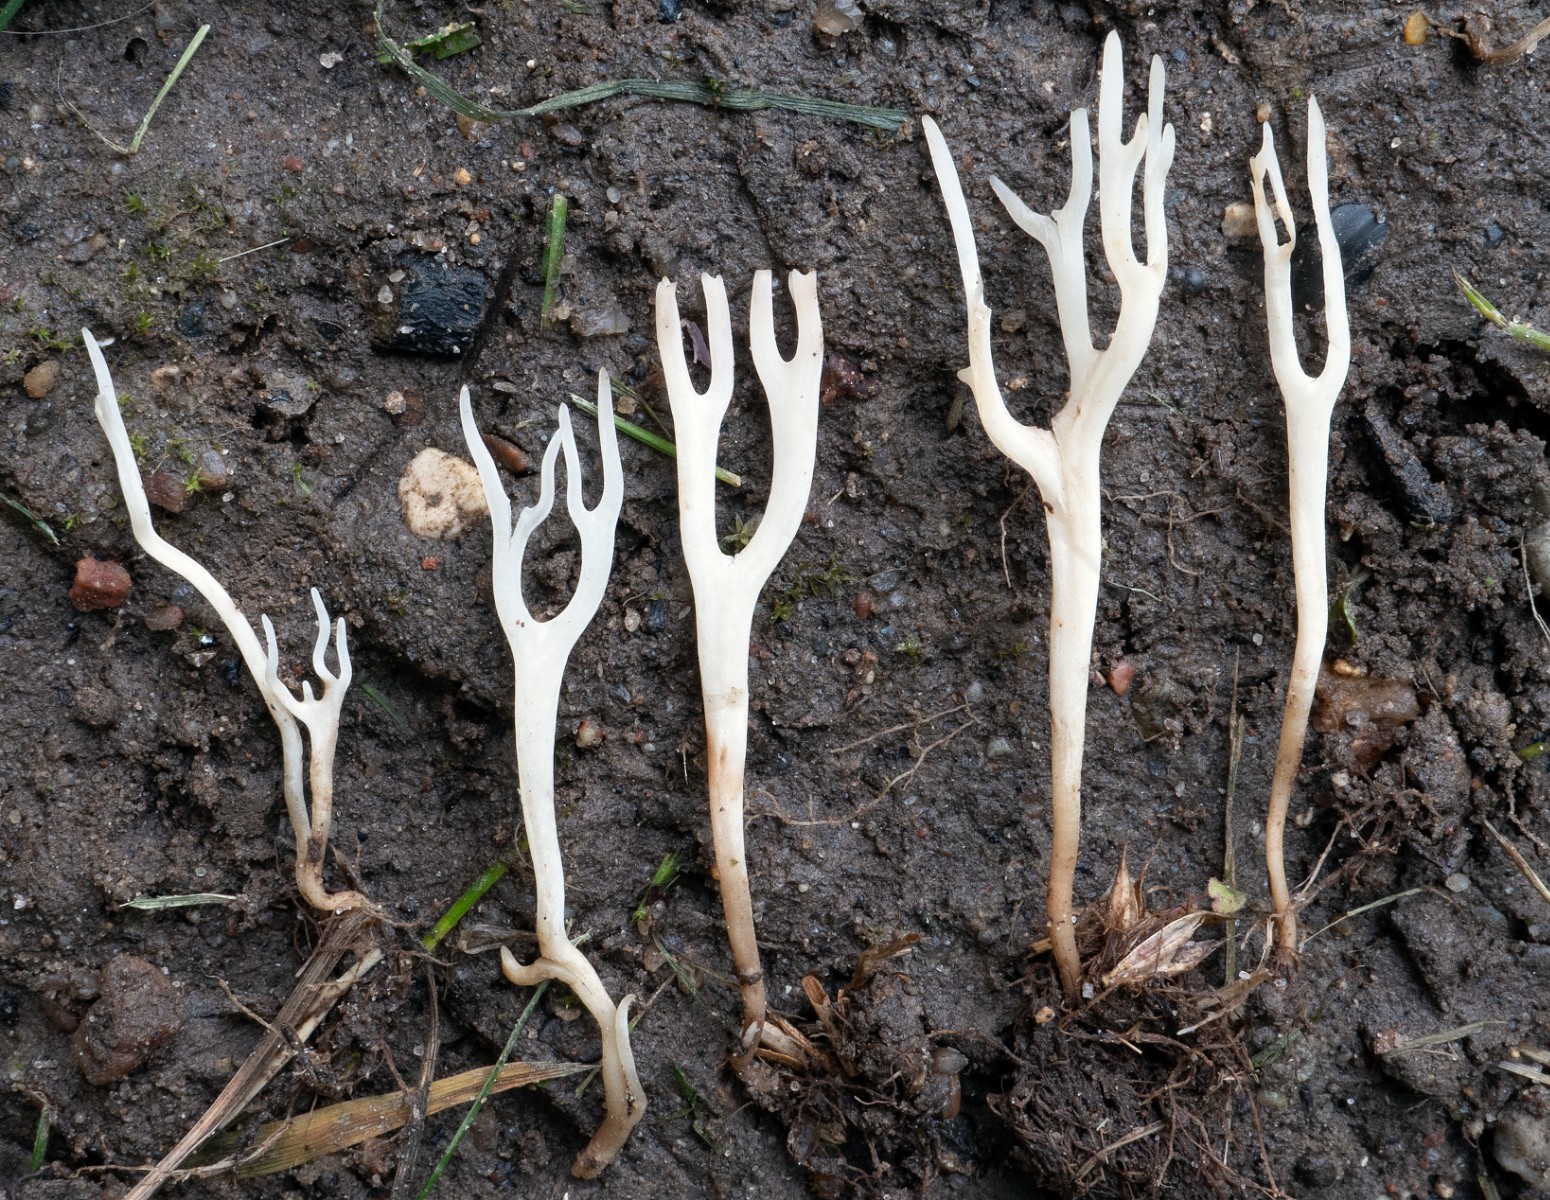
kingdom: Fungi
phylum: Basidiomycota
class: Agaricomycetes
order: Agaricales
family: Clavariaceae
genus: Ramariopsis
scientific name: Ramariopsis
